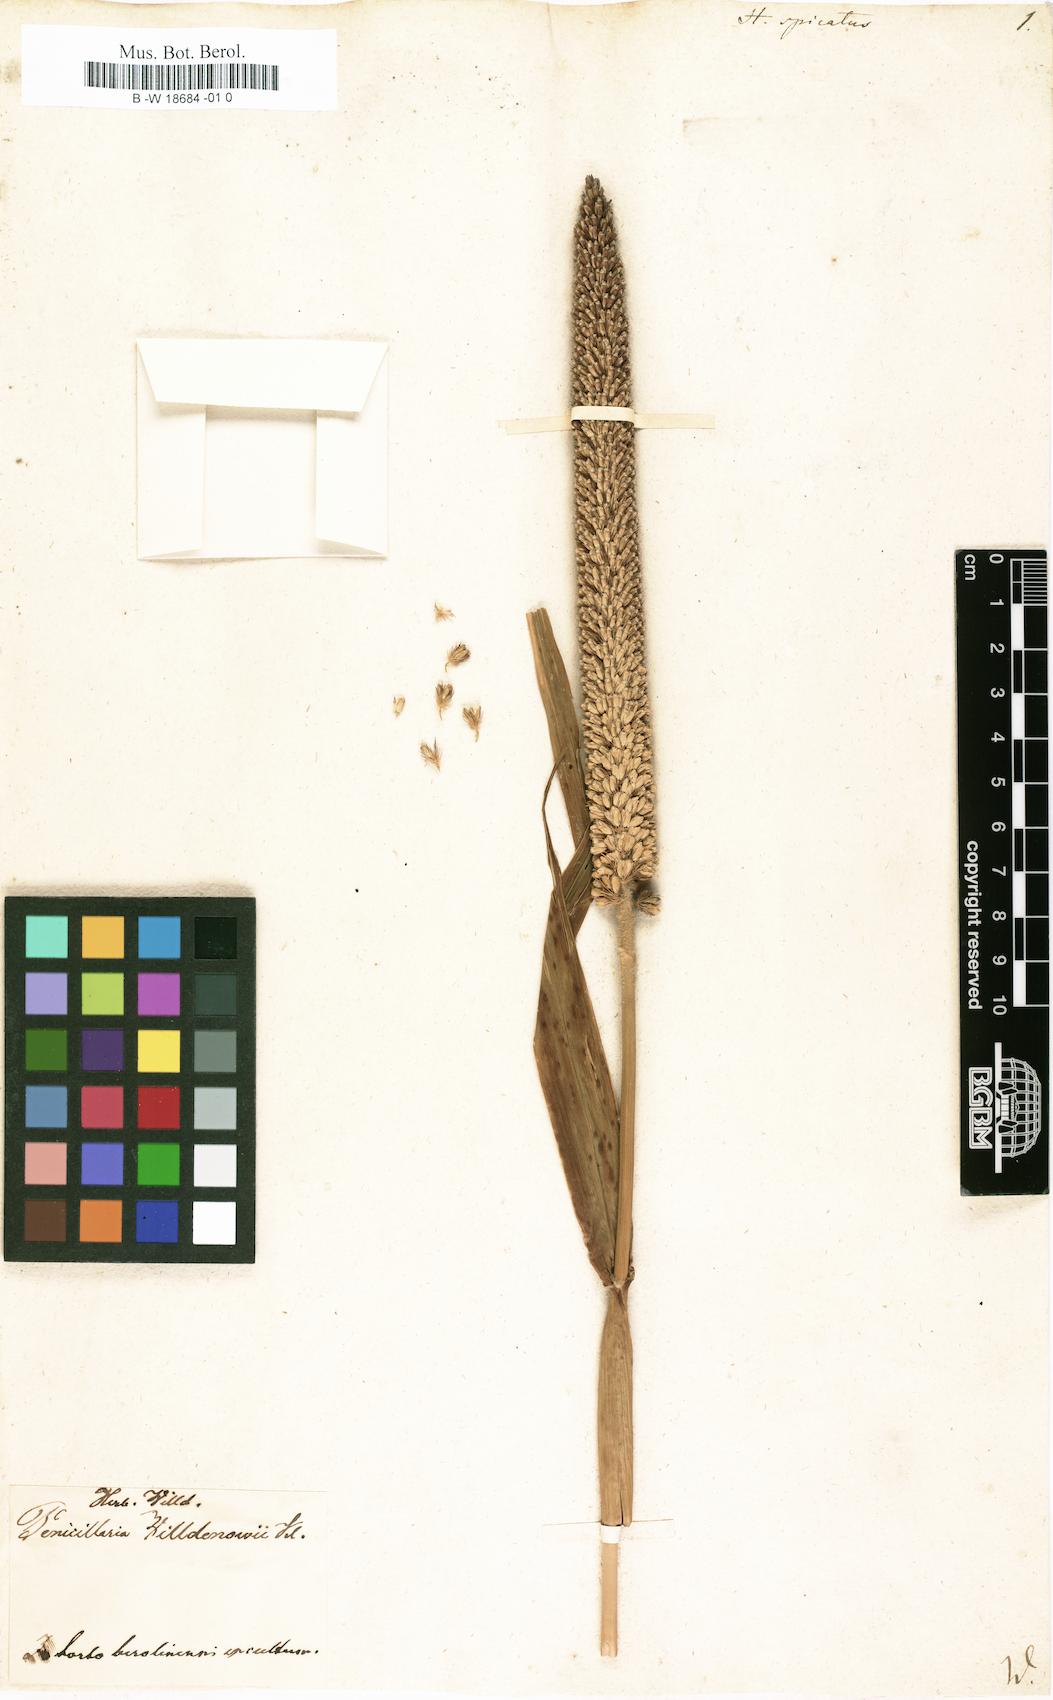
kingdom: Plantae
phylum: Tracheophyta
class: Liliopsida
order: Poales
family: Poaceae
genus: Cenchrus
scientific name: Cenchrus americanus
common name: Pearl millet
